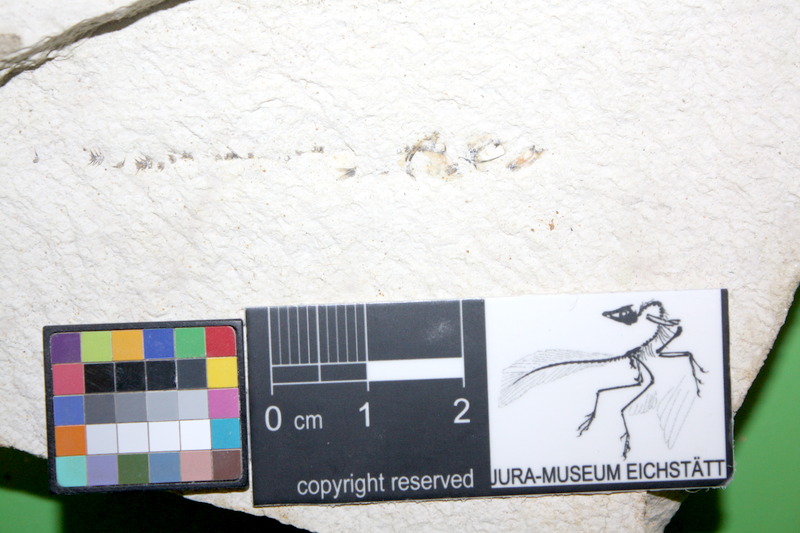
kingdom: Animalia
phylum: Chordata
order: Salmoniformes
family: Orthogonikleithridae
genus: Orthogonikleithrus
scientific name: Orthogonikleithrus hoelli
